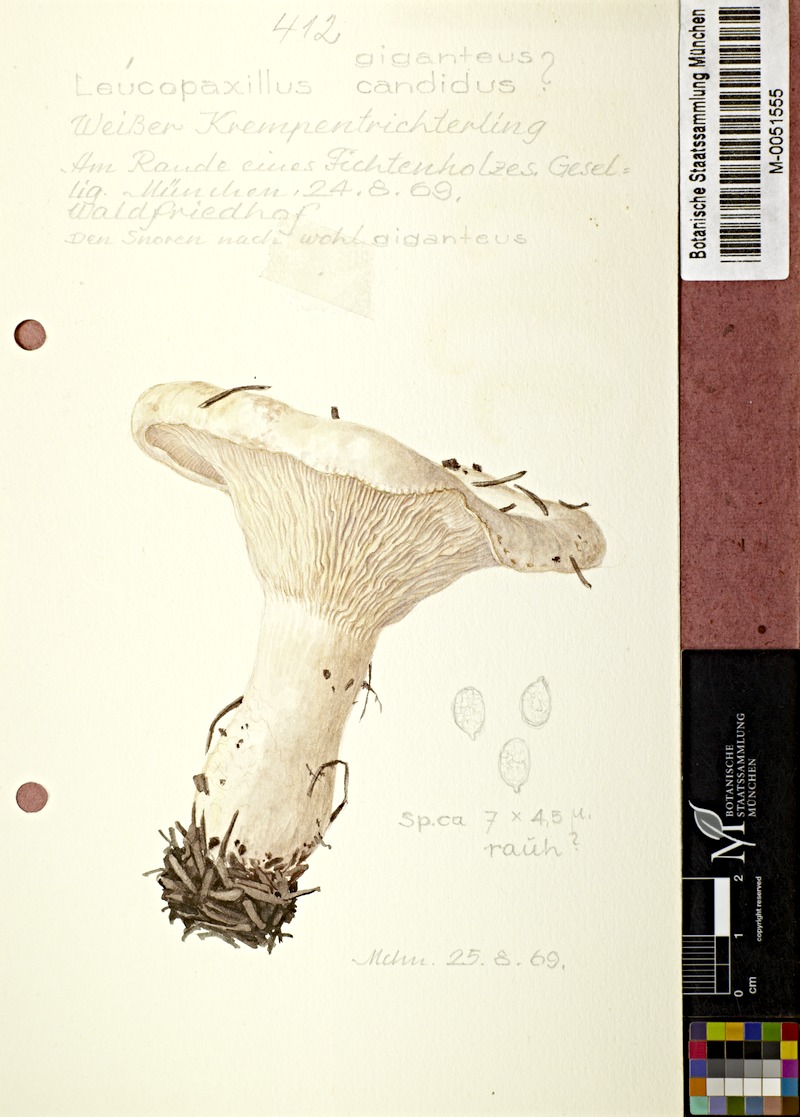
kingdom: Fungi
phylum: Basidiomycota
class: Agaricomycetes
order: Agaricales
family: Tricholomataceae
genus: Aspropaxillus
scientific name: Aspropaxillus candidus
